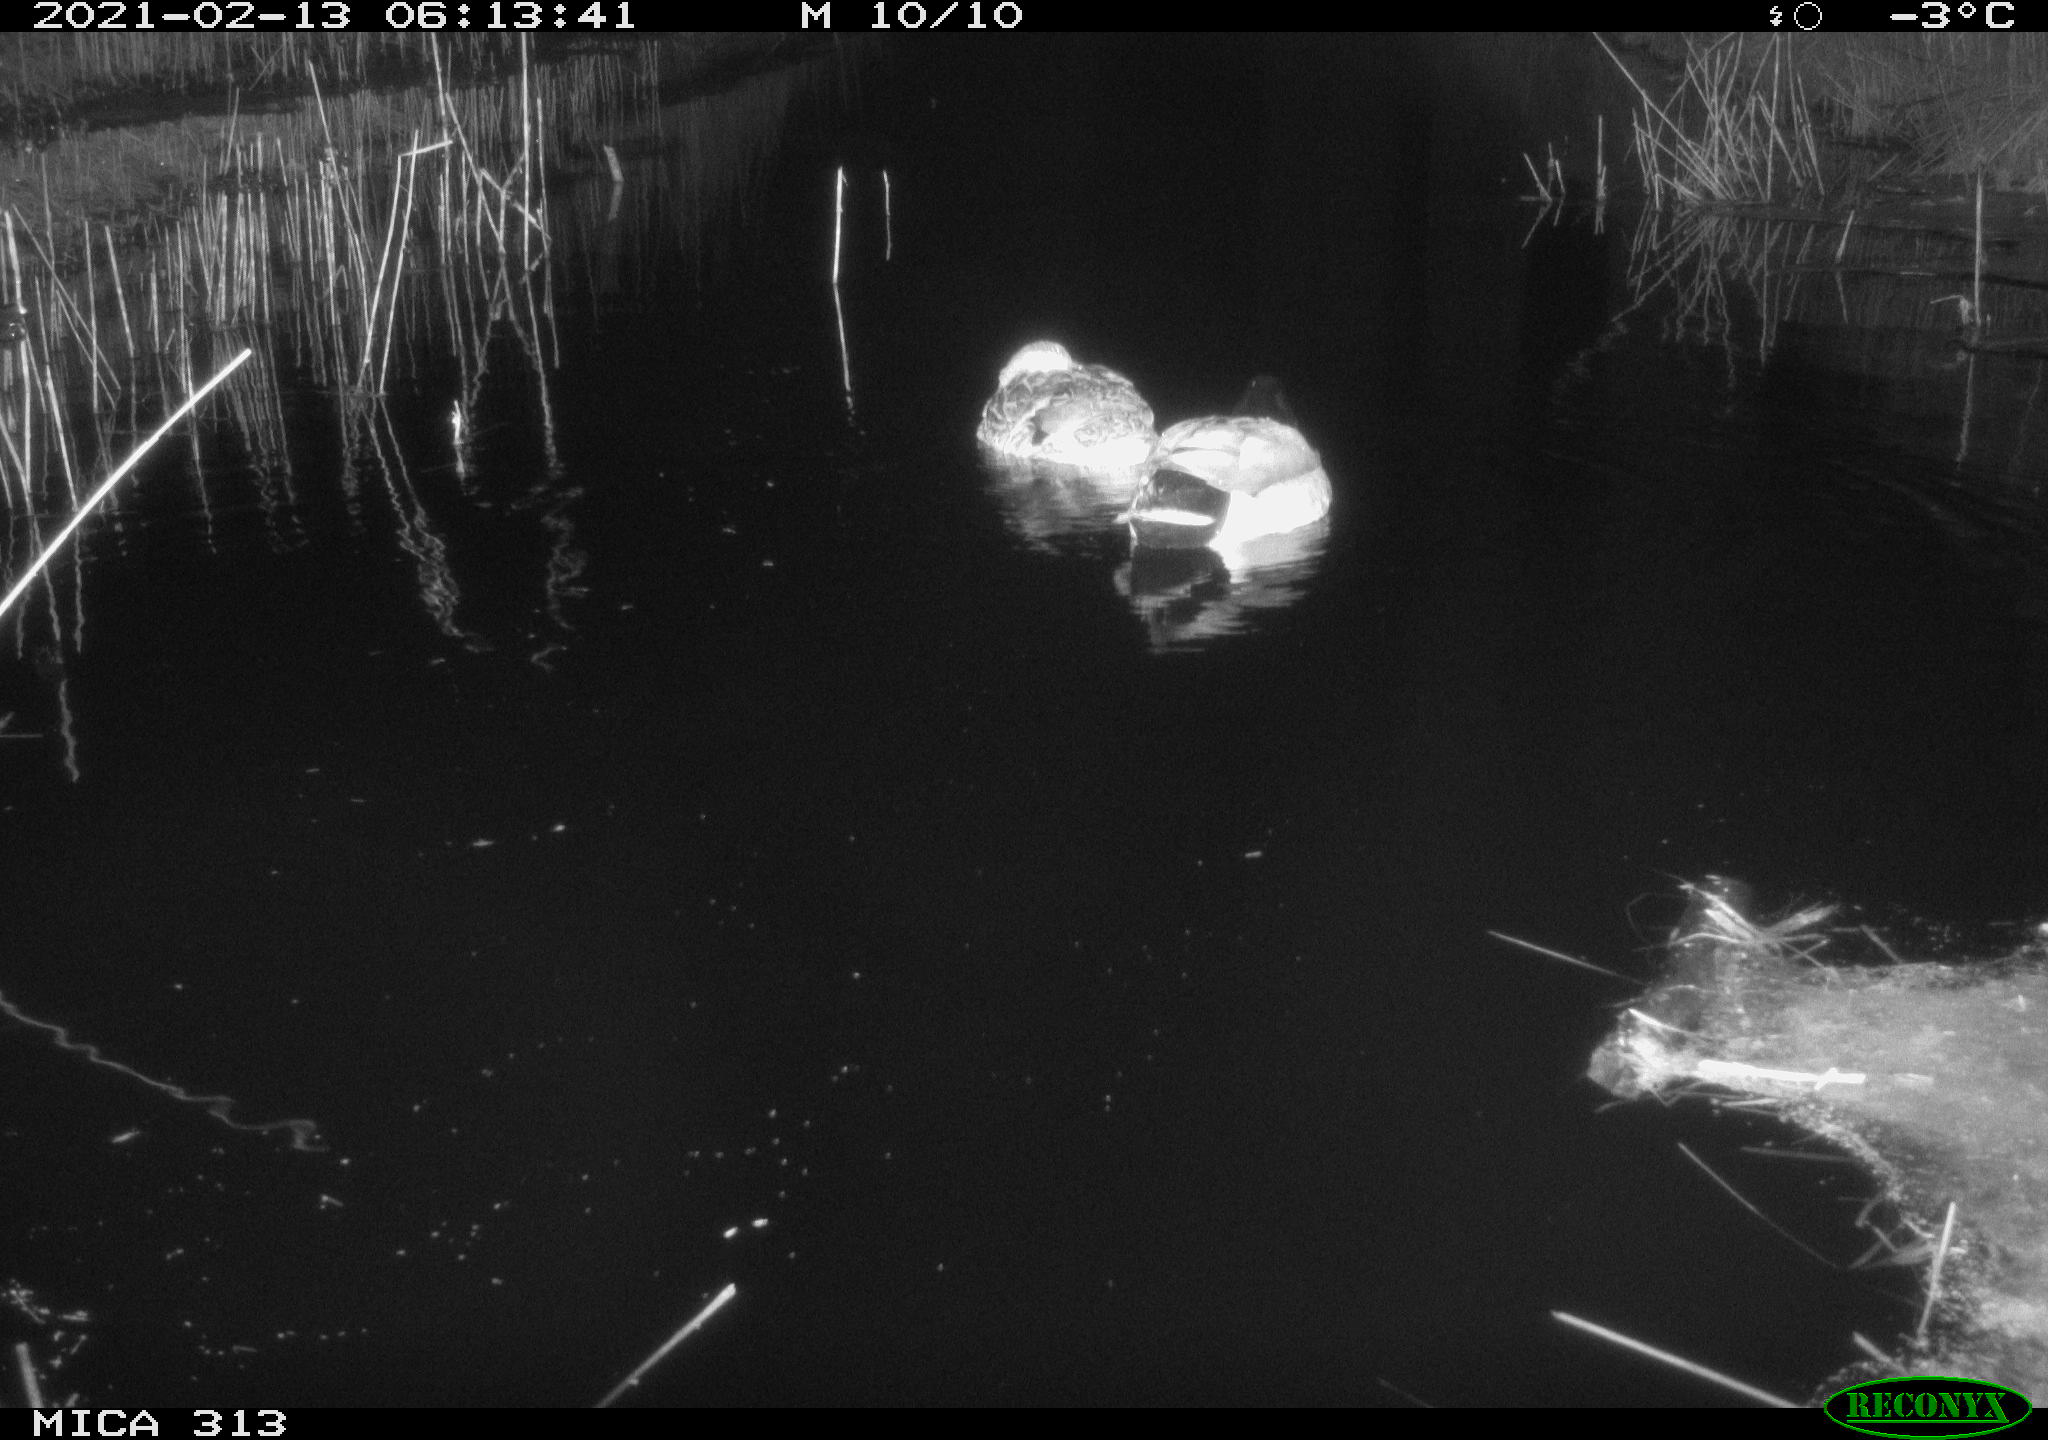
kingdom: Animalia
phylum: Chordata
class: Aves
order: Anseriformes
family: Anatidae
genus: Anas
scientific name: Anas
